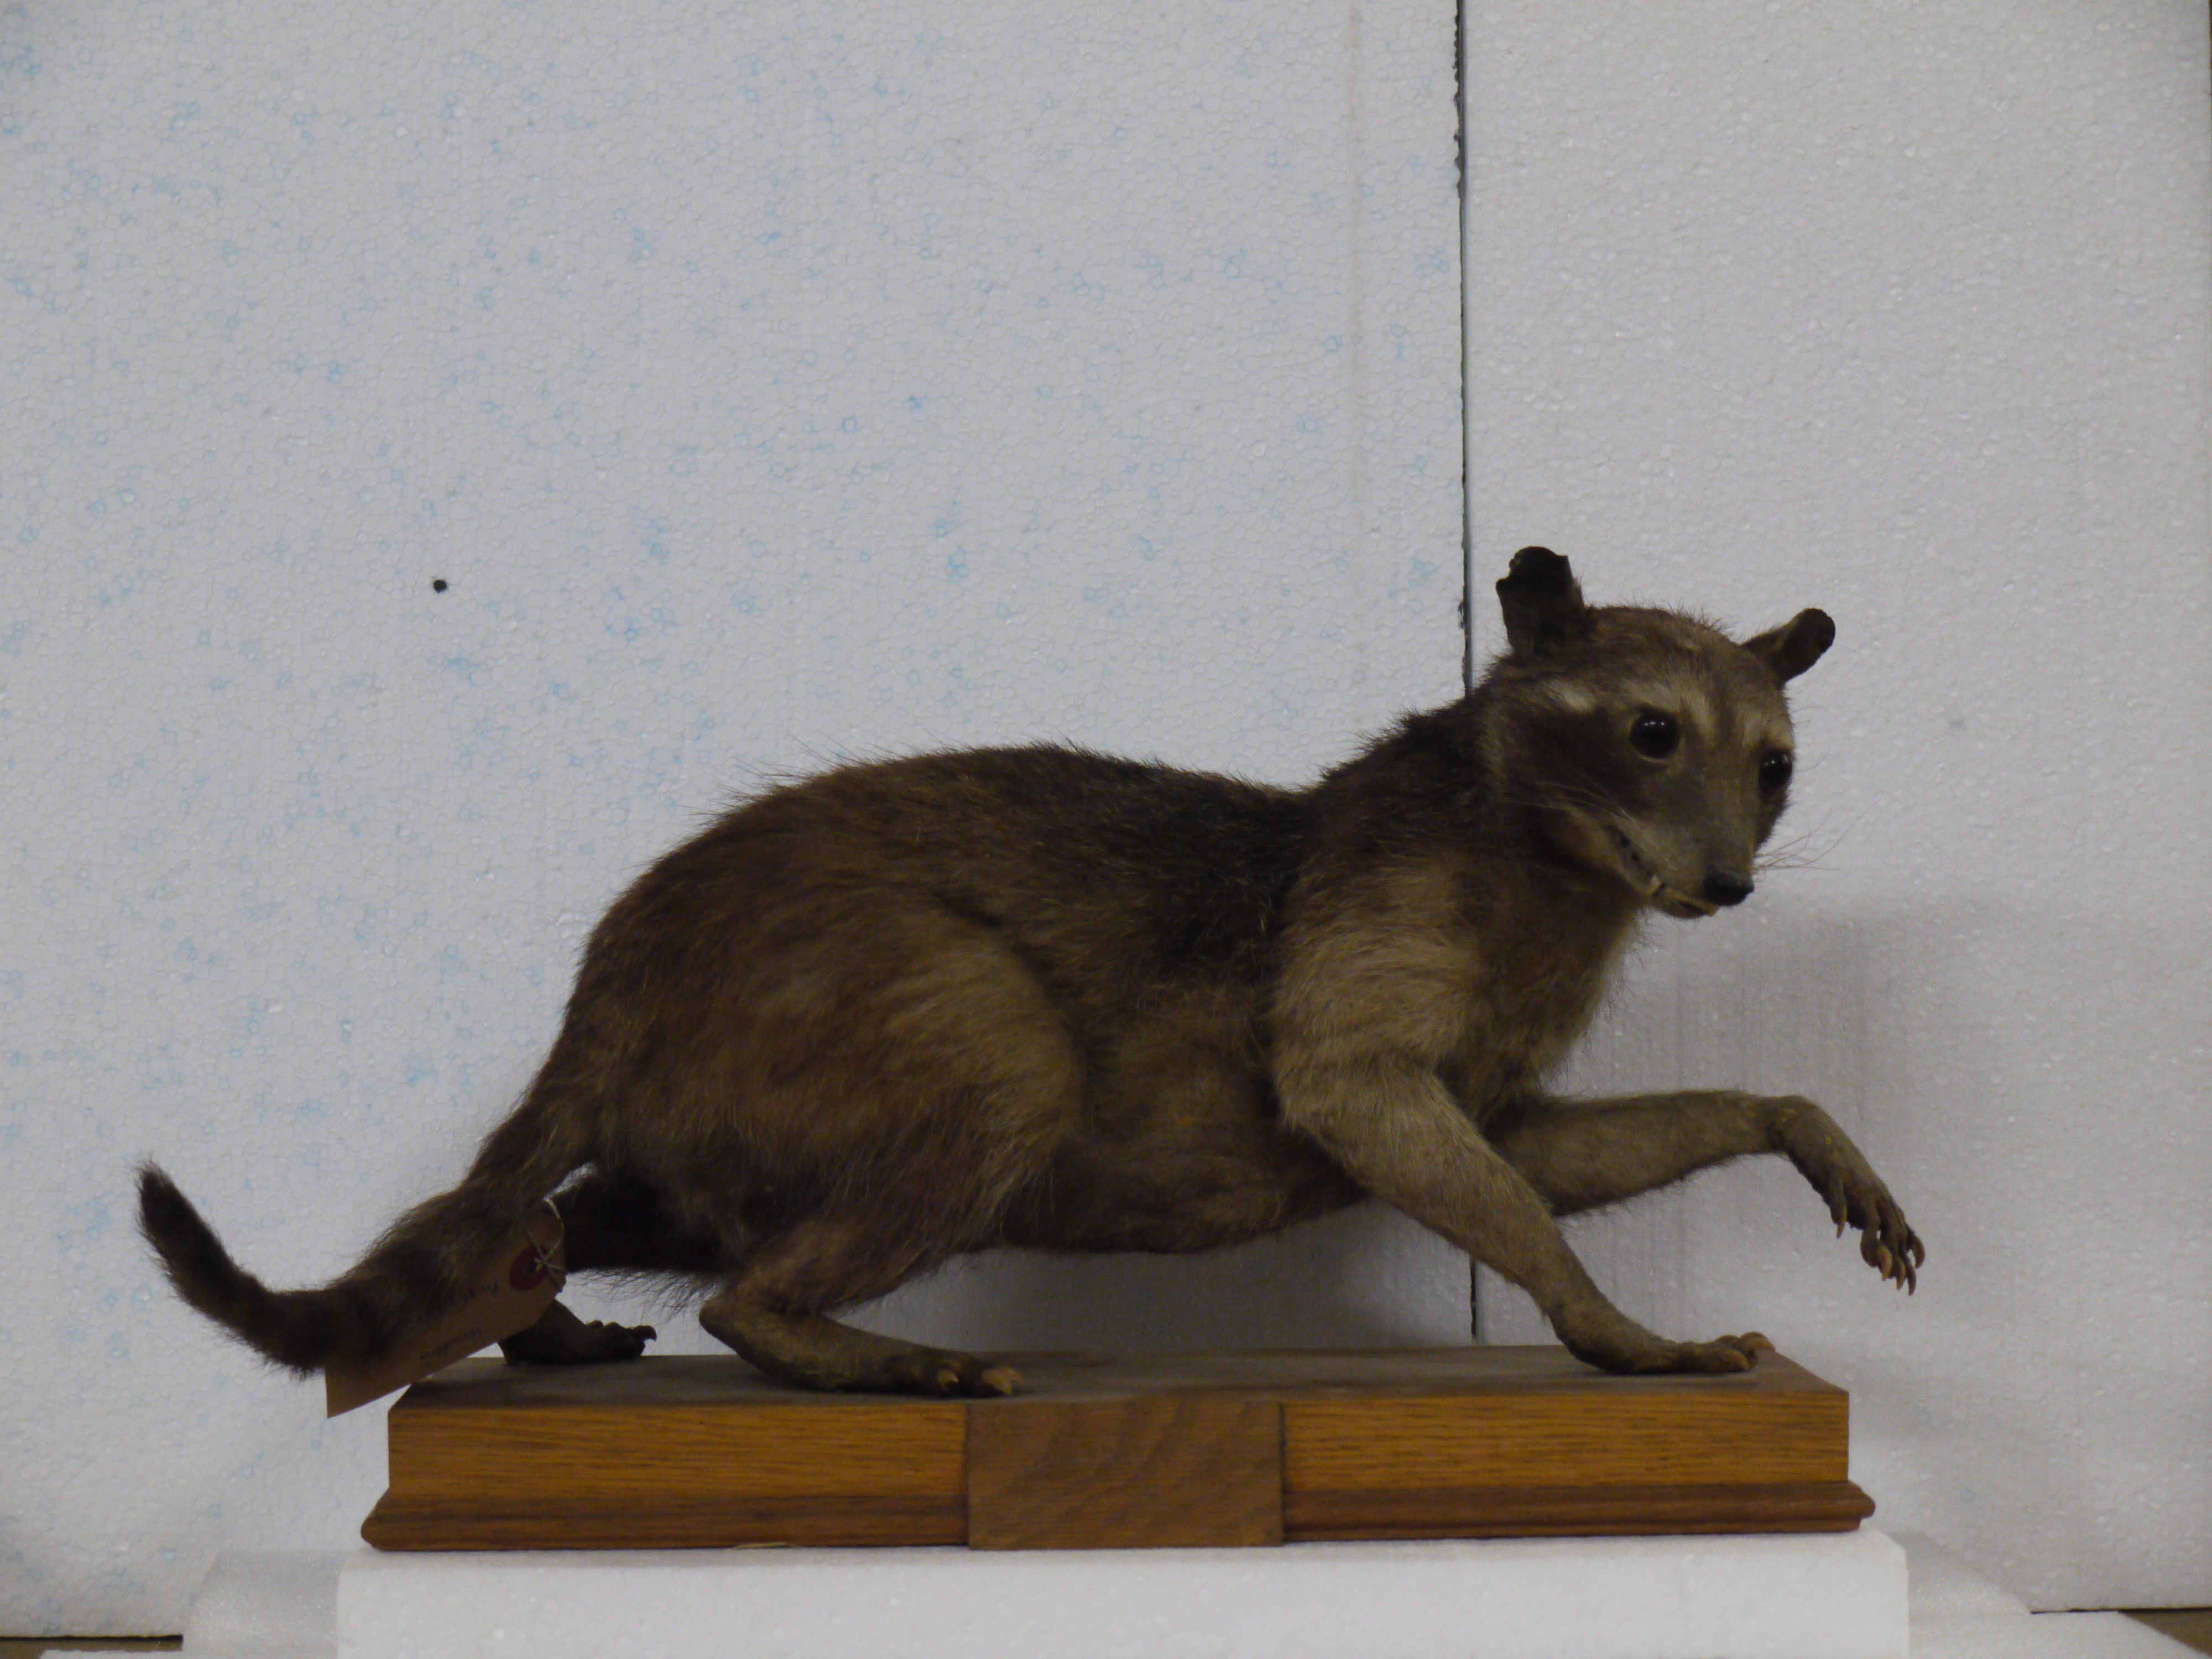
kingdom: Animalia
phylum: Chordata
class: Mammalia
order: Carnivora
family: Procyonidae
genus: Procyon
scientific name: Procyon lotor
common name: Raccoon
